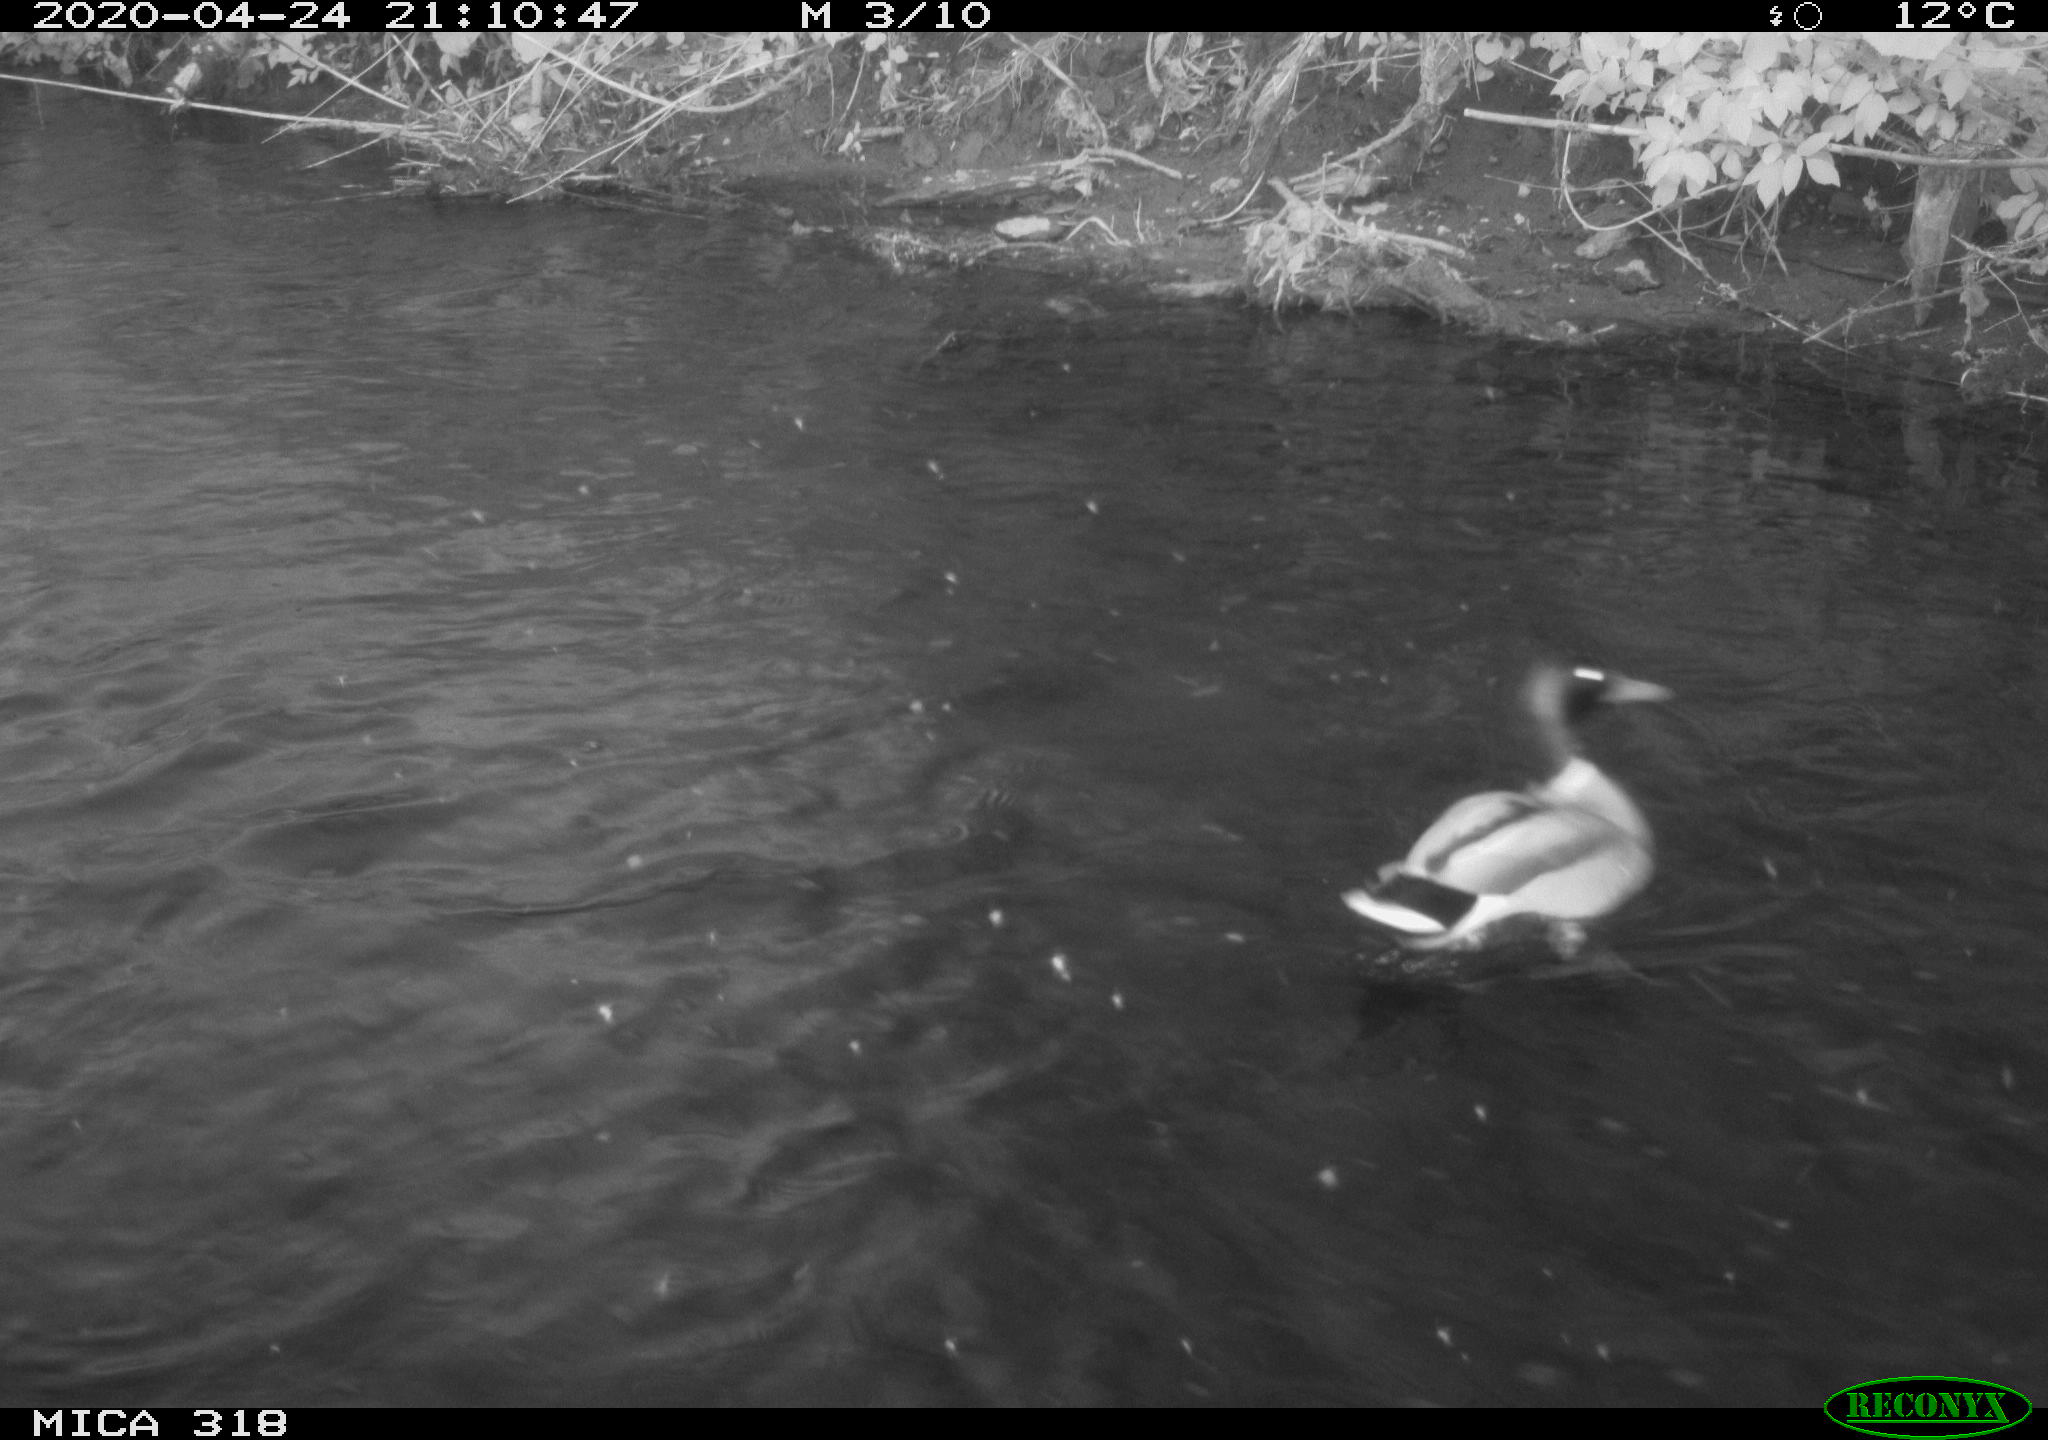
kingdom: Animalia
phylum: Chordata
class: Aves
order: Anseriformes
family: Anatidae
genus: Anas
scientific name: Anas platyrhynchos
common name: Mallard
